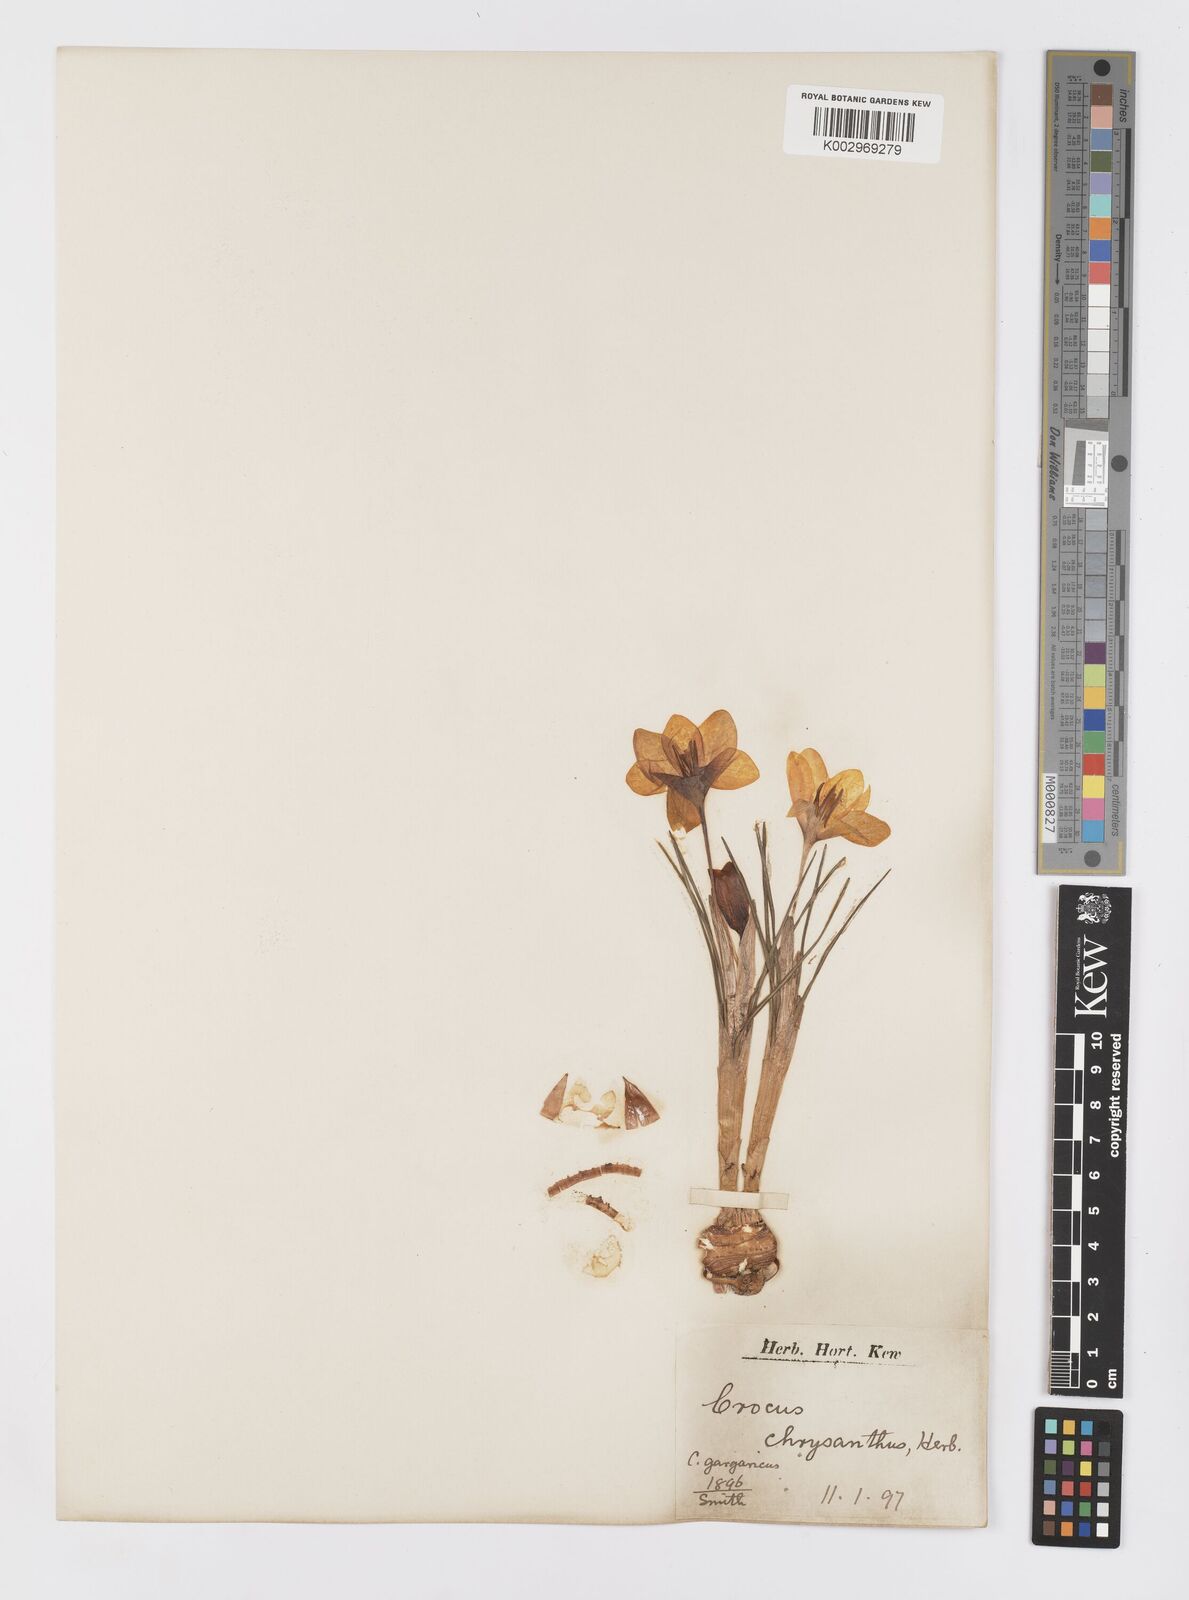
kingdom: Plantae
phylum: Tracheophyta
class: Liliopsida
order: Asparagales
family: Iridaceae
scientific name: Iridaceae
